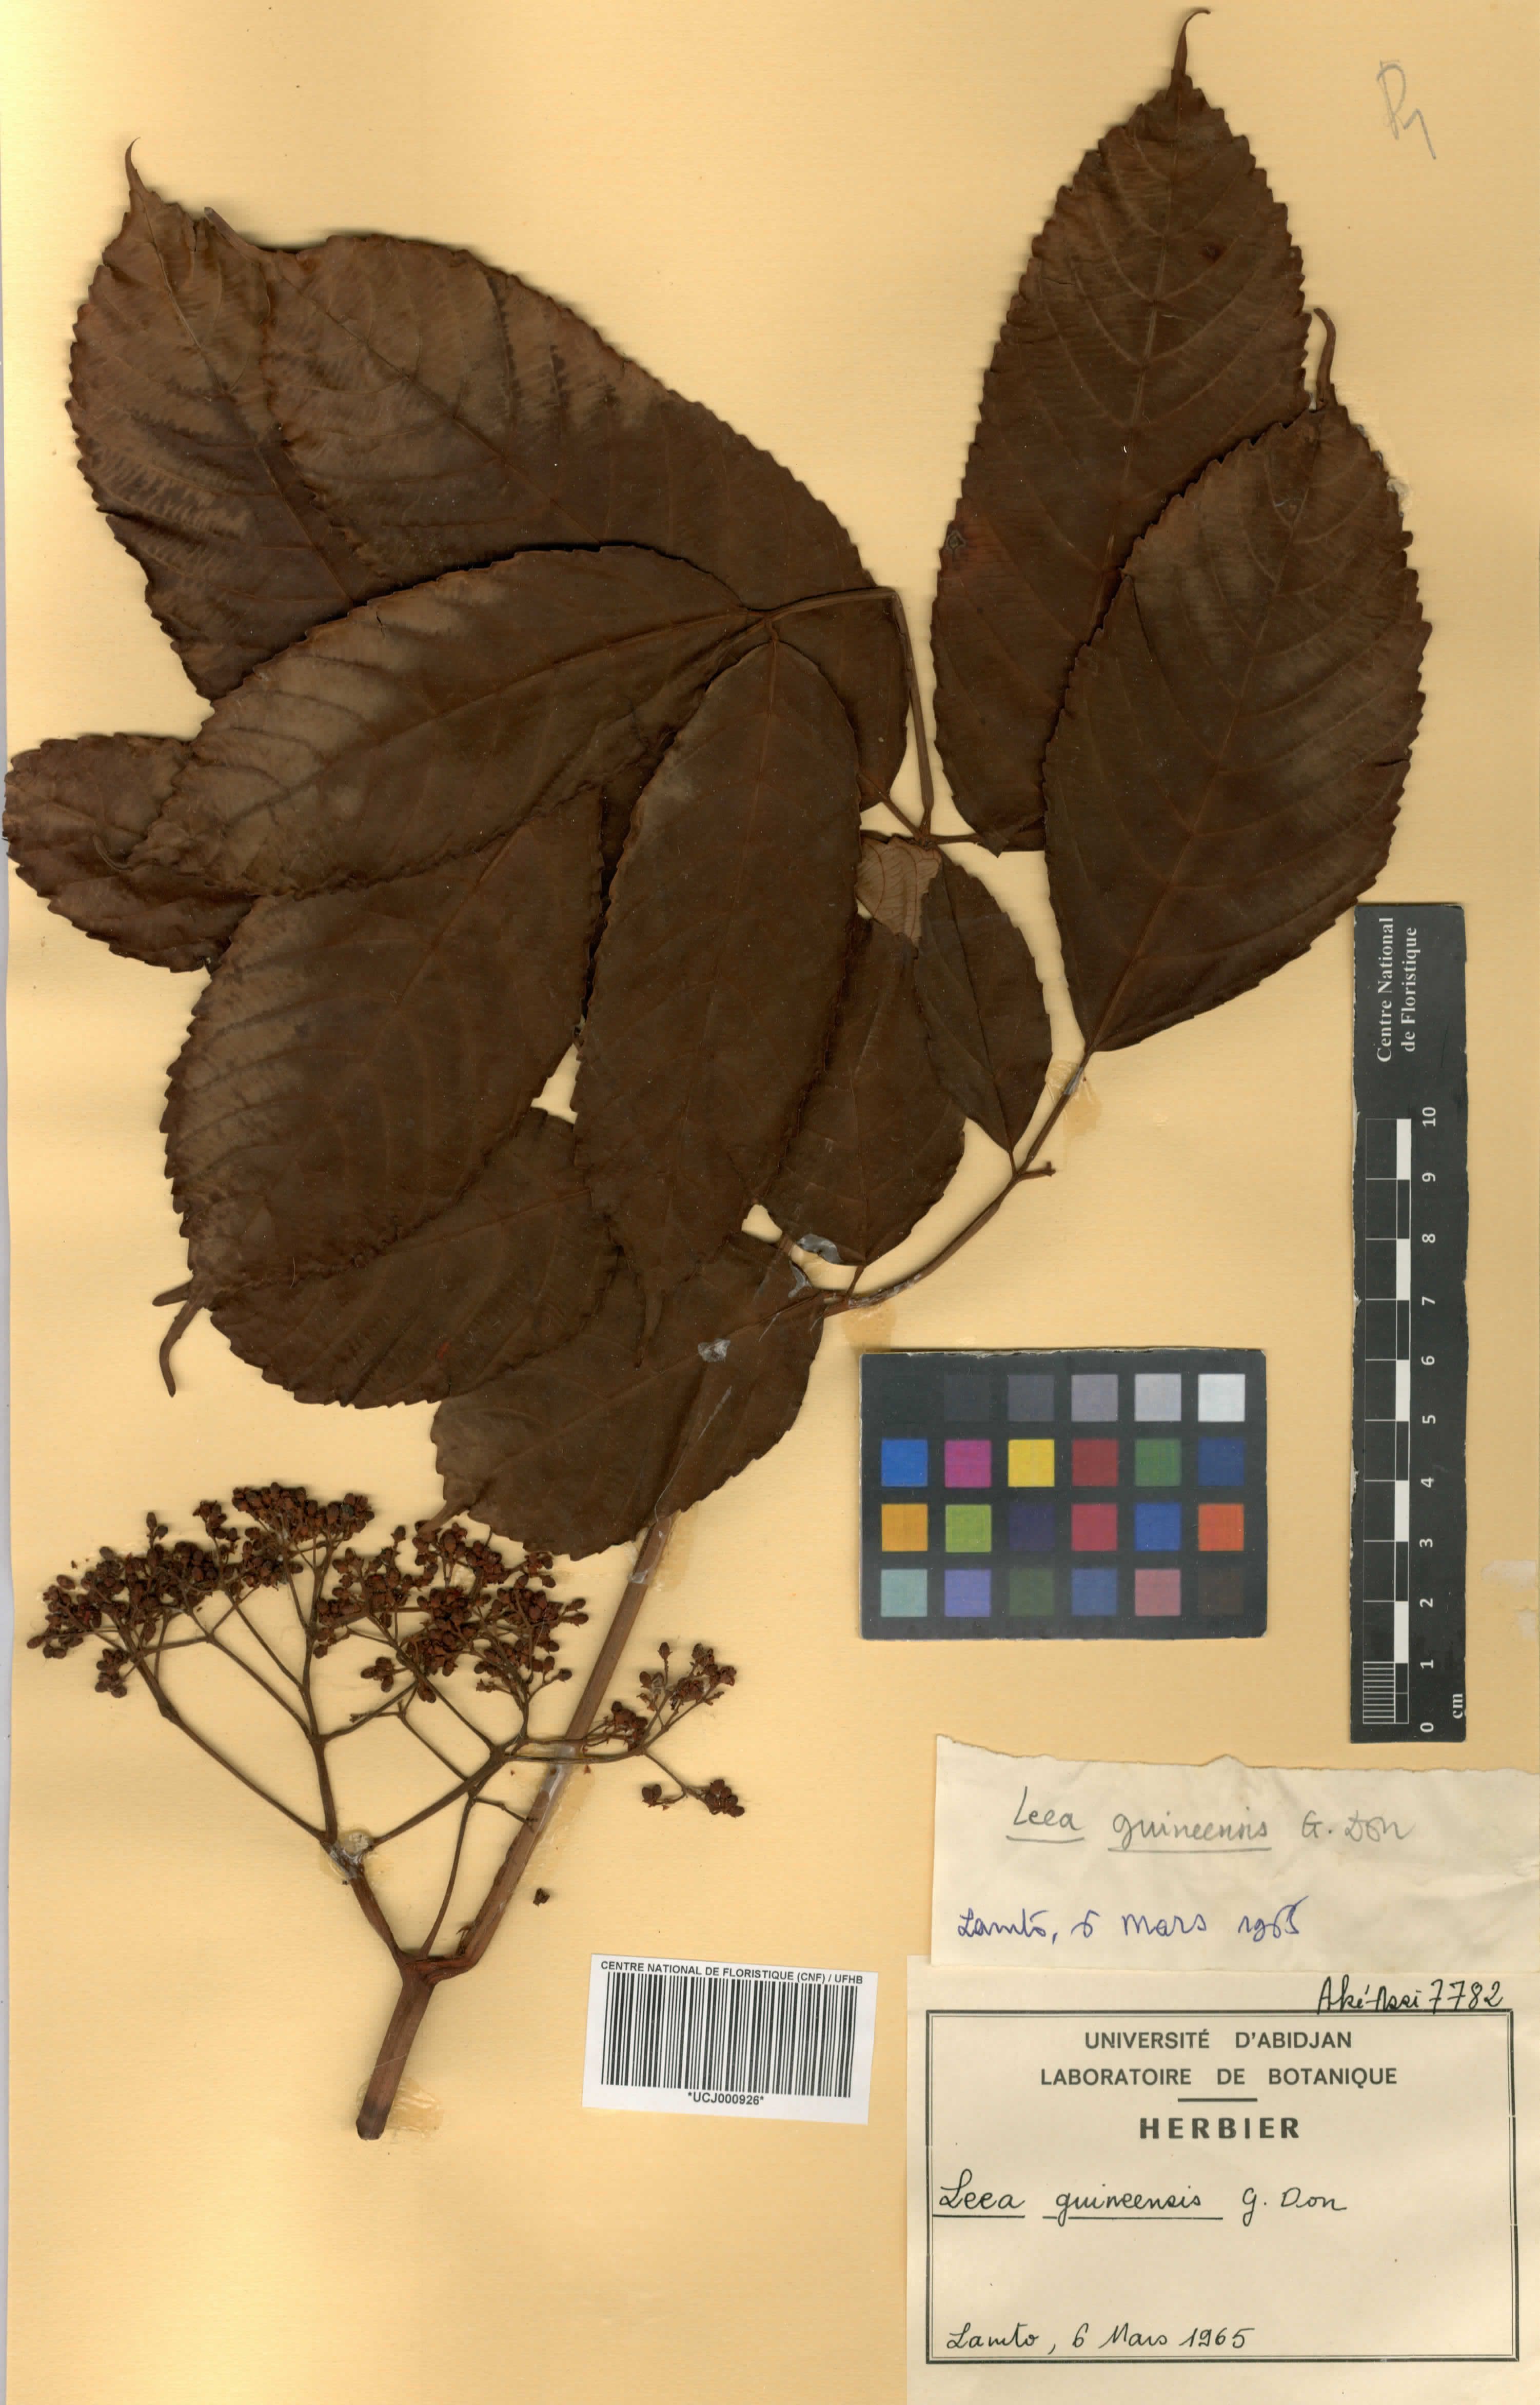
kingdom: Plantae
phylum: Tracheophyta
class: Magnoliopsida
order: Vitales
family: Vitaceae
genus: Leea
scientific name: Leea guineensis
